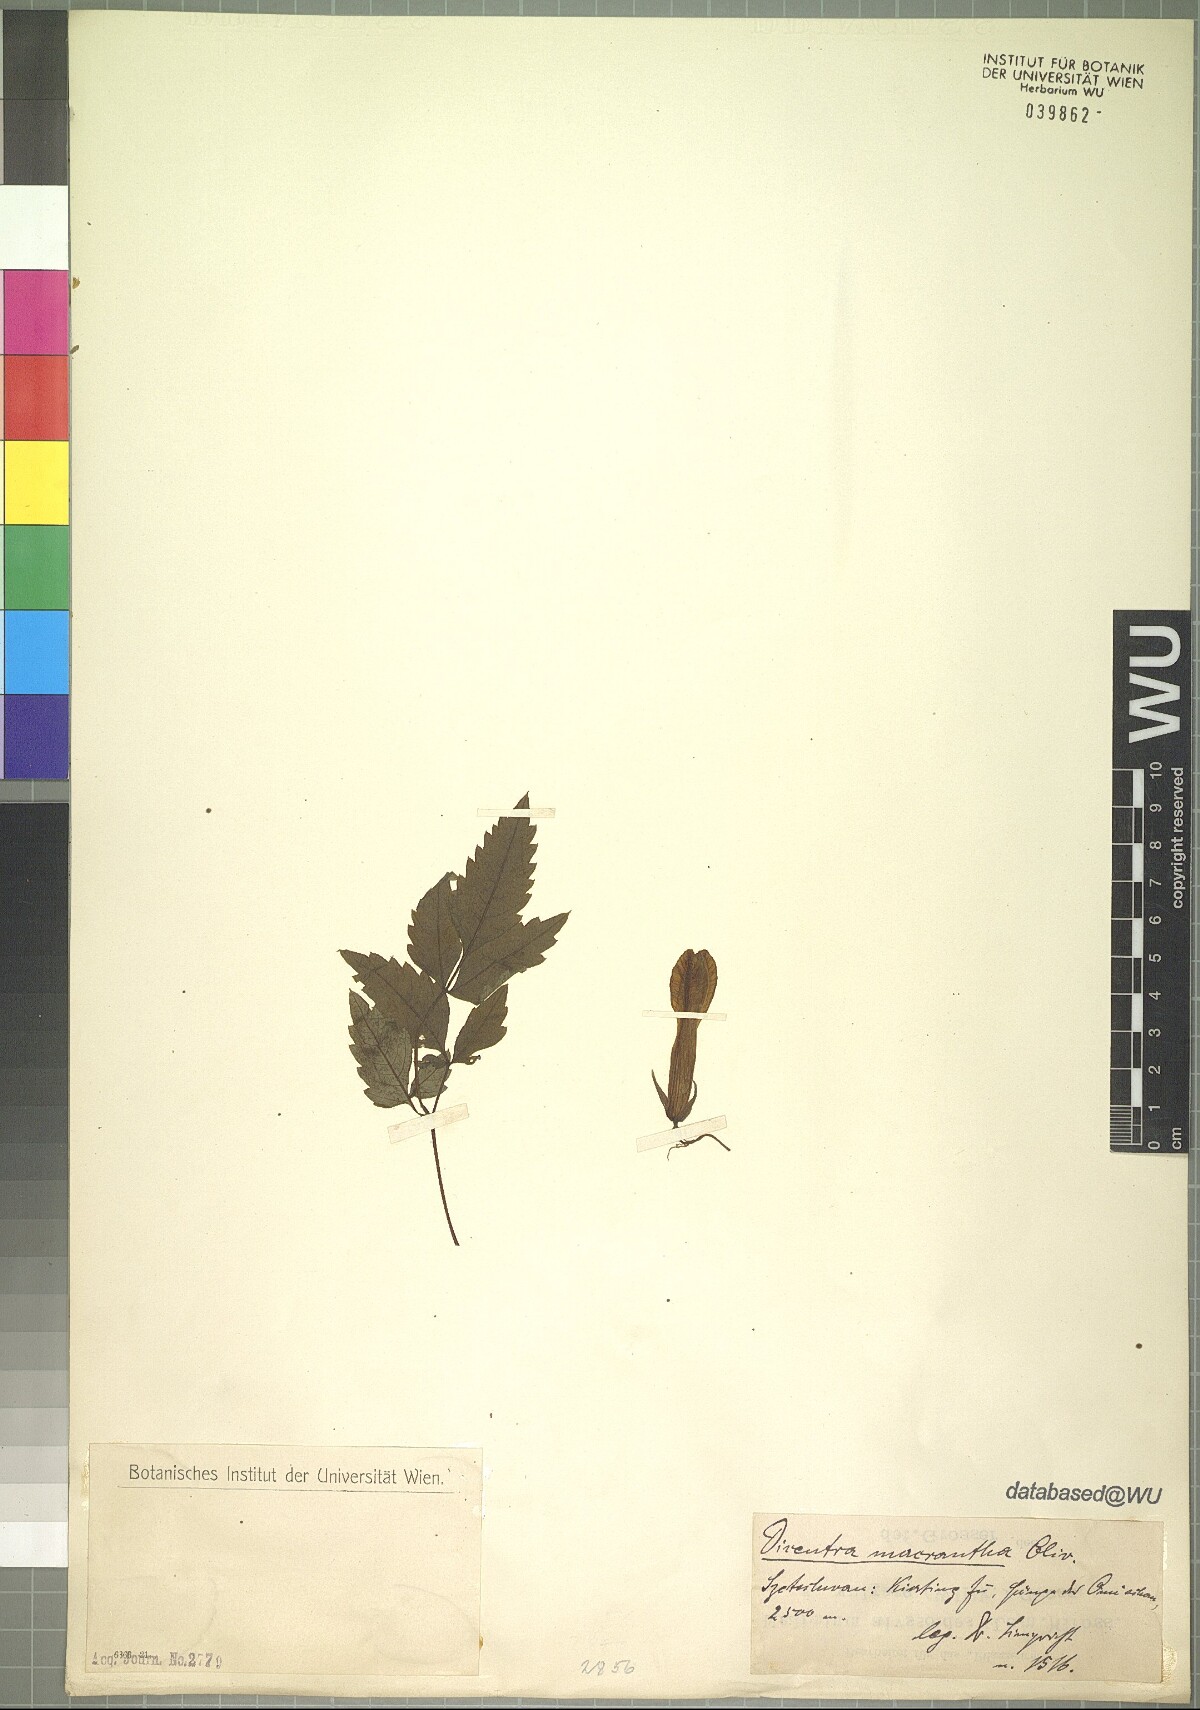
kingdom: Plantae
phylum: Tracheophyta
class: Magnoliopsida
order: Ranunculales
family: Papaveraceae
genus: Ichtyoselmis
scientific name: Ichtyoselmis macrantha
